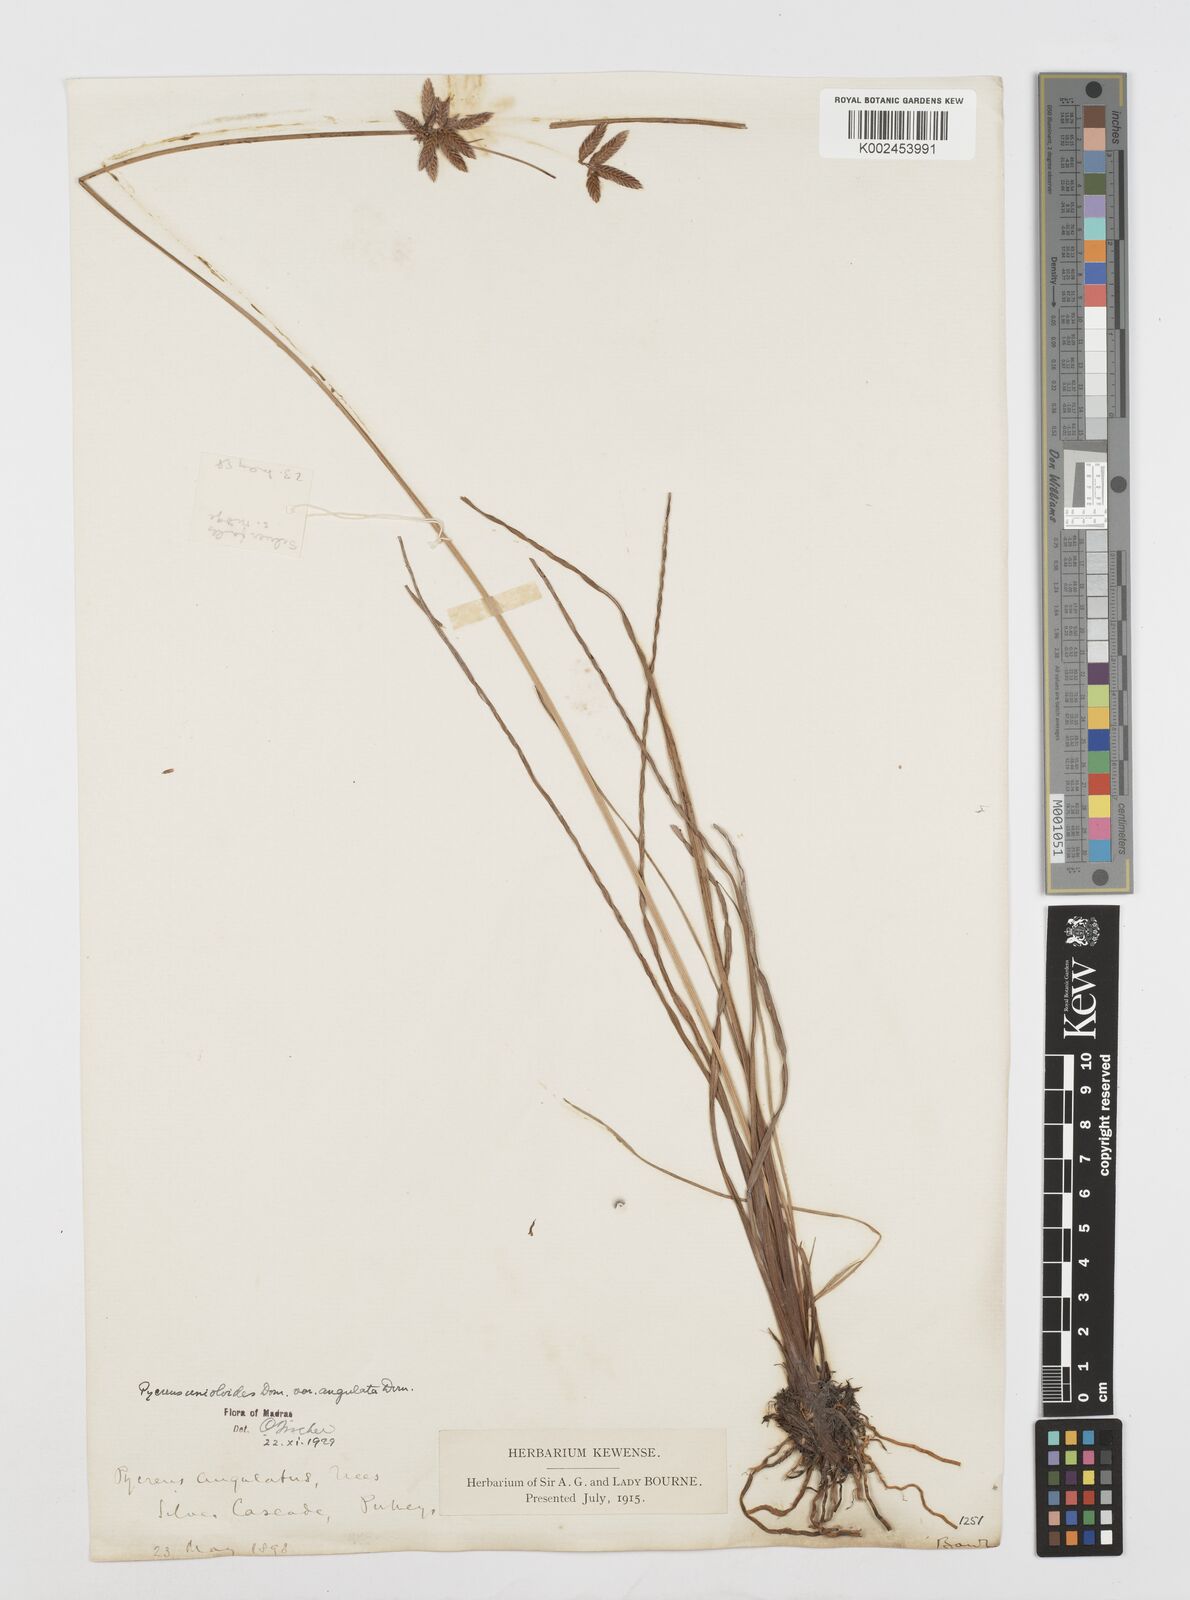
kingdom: Plantae
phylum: Tracheophyta
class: Liliopsida
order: Poales
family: Cyperaceae
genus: Cyperus
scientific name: Cyperus unioloides
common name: Uniola flatsedge
